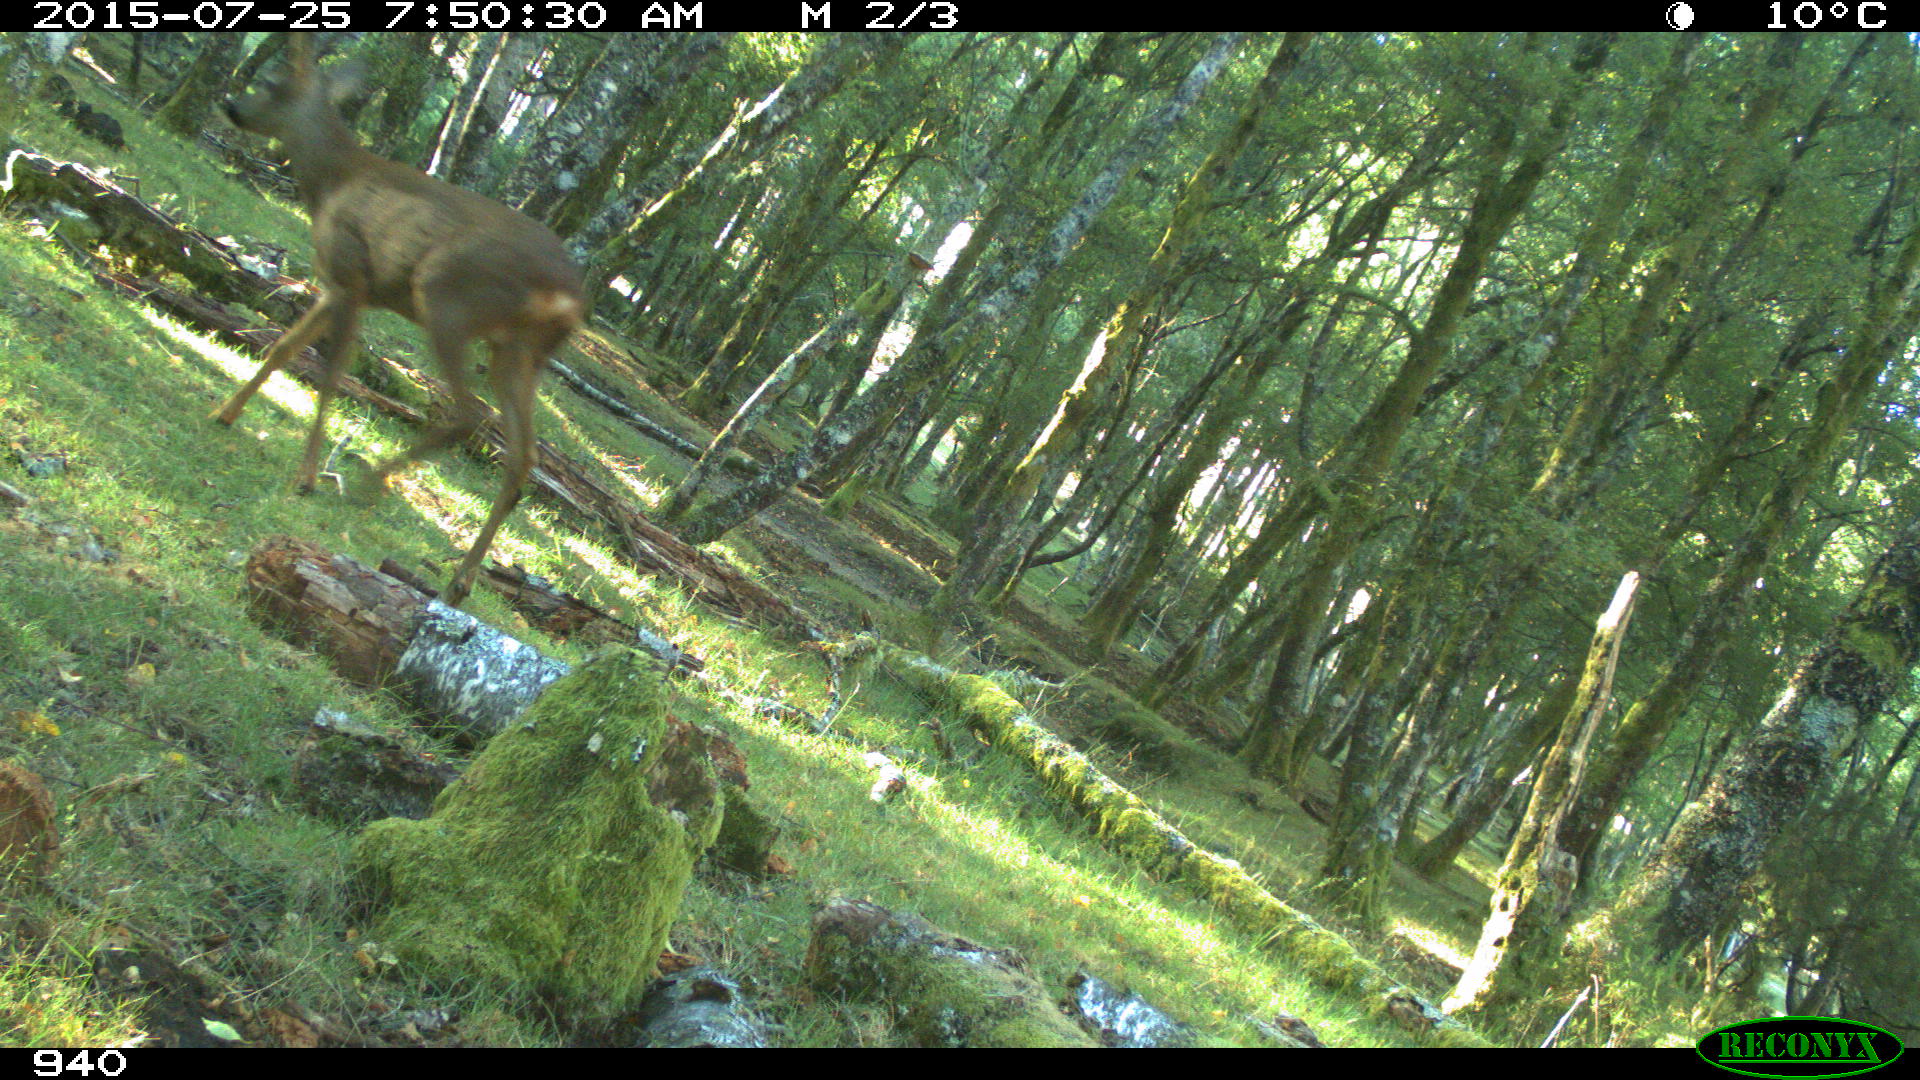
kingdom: Animalia
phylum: Chordata
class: Mammalia
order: Artiodactyla
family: Cervidae
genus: Capreolus
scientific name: Capreolus capreolus
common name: Western roe deer
